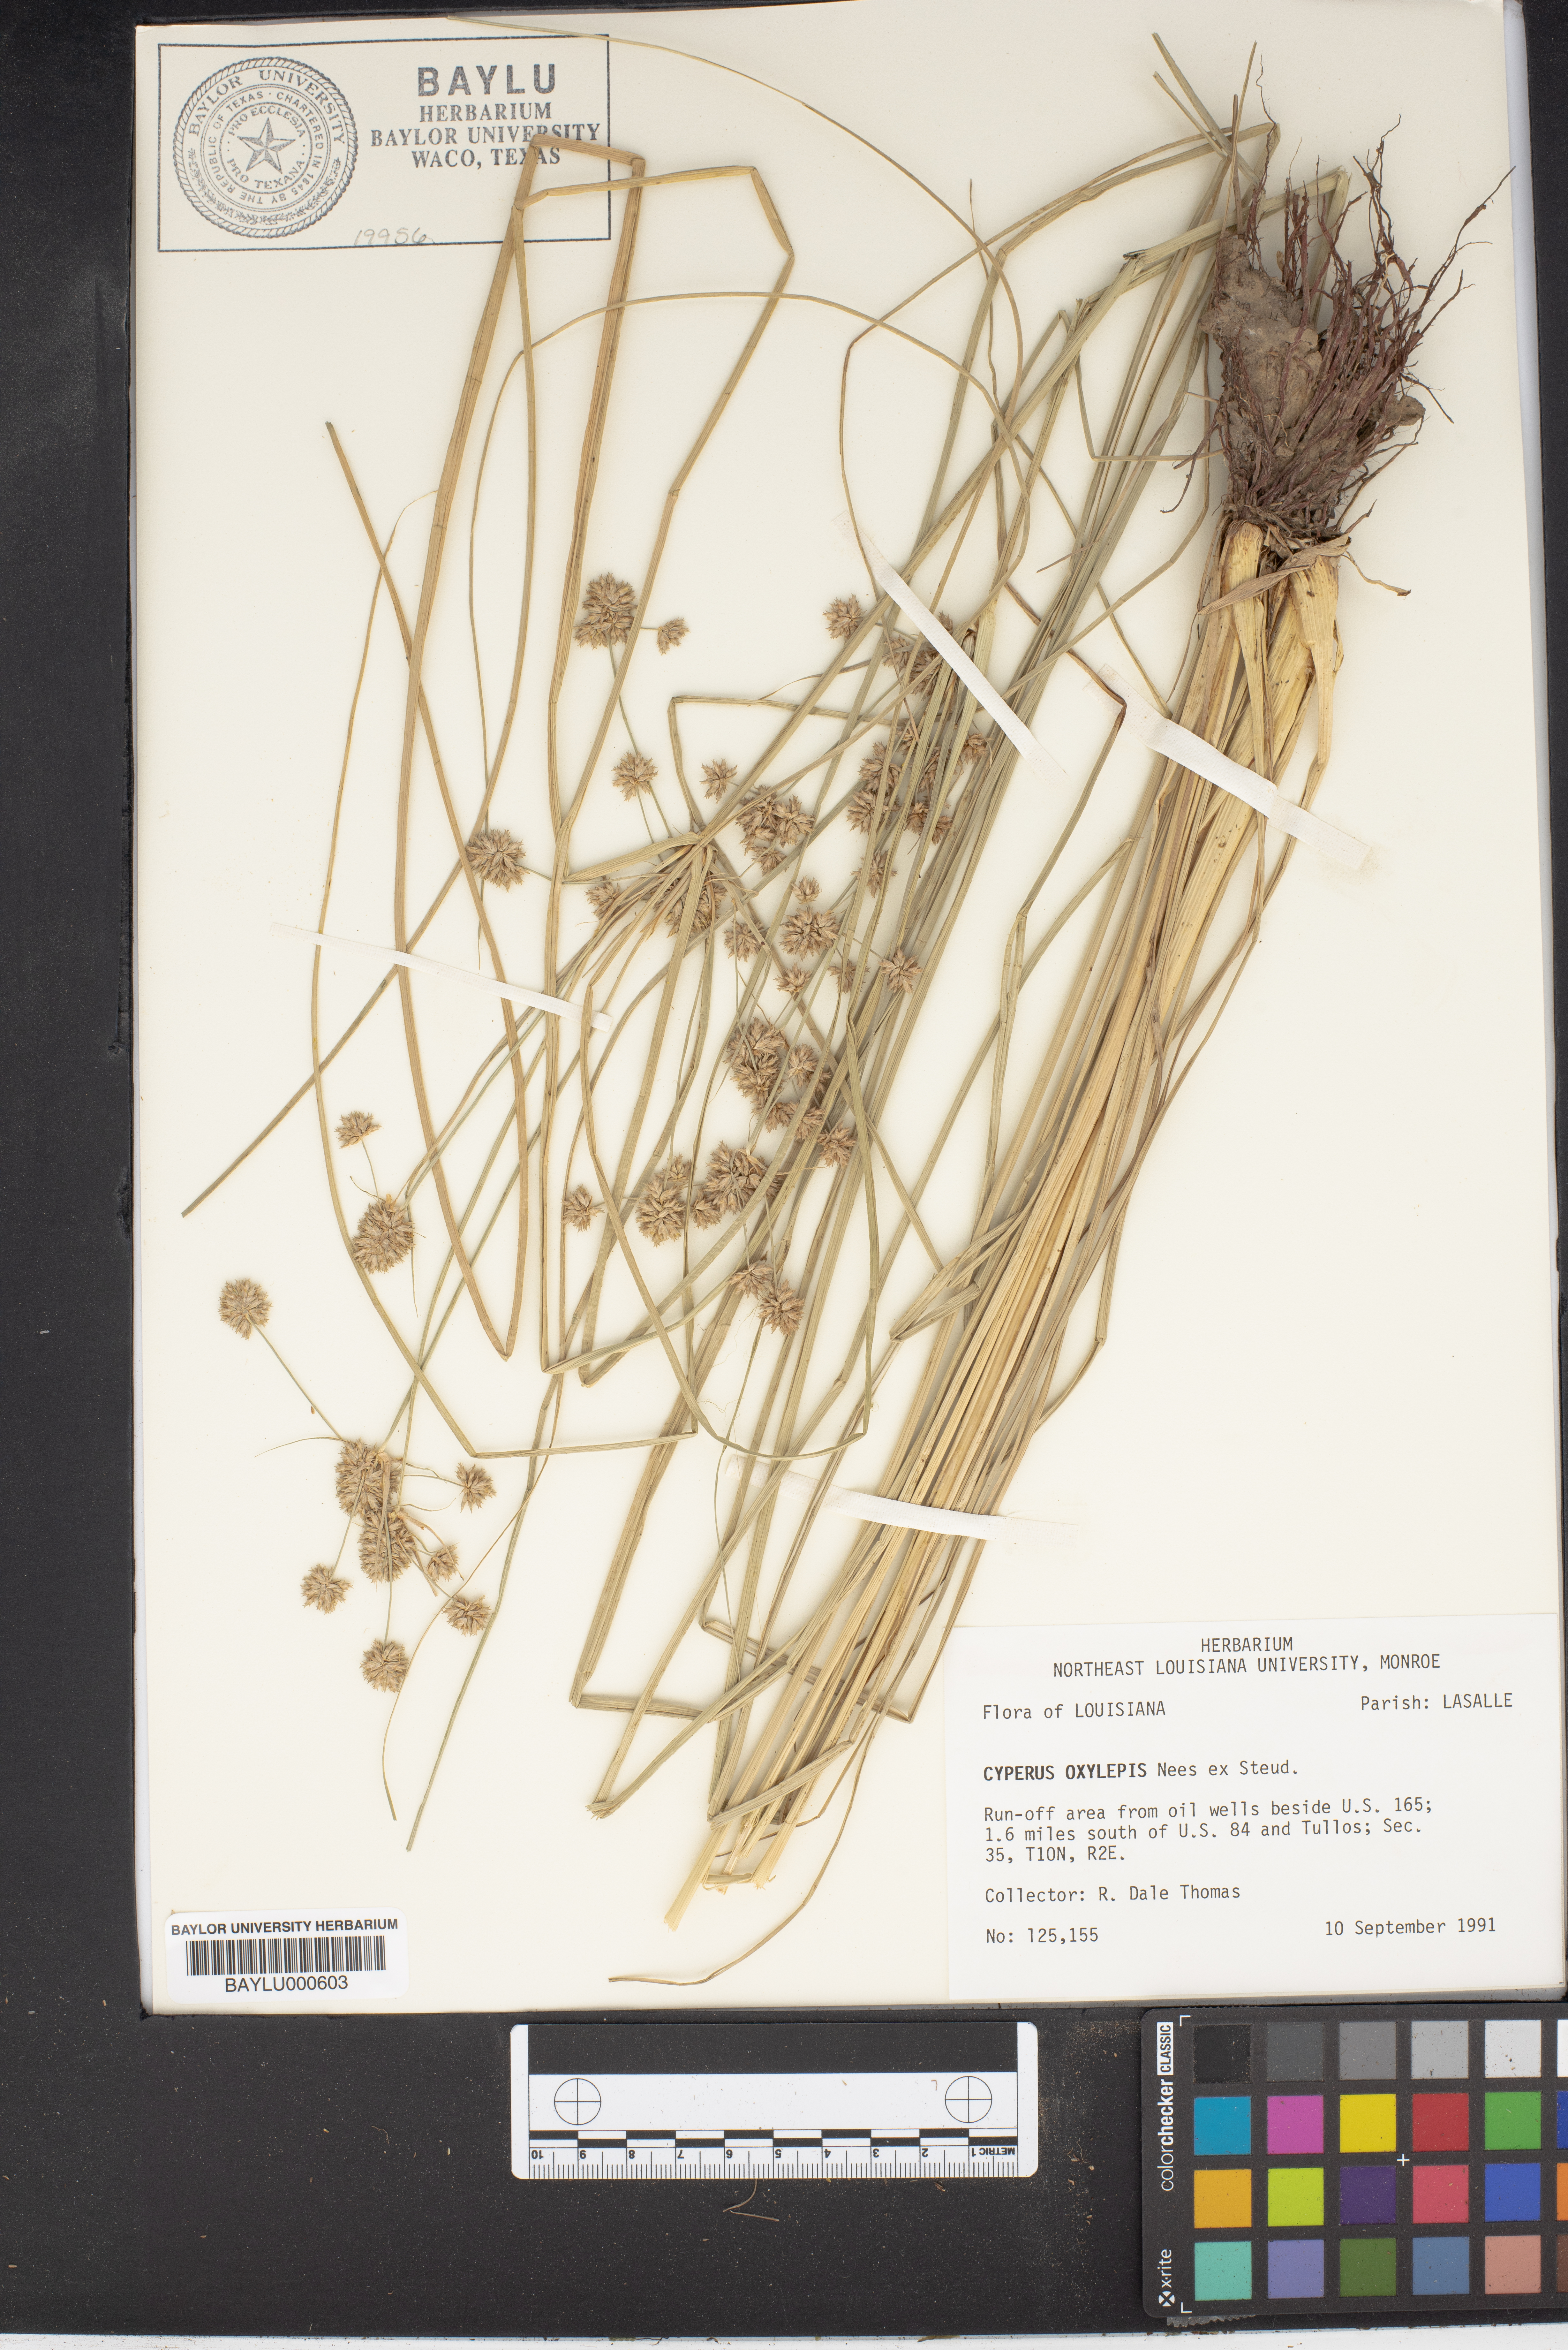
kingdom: Plantae
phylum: Tracheophyta
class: Liliopsida
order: Poales
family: Cyperaceae
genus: Cyperus
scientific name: Cyperus oxylepis
